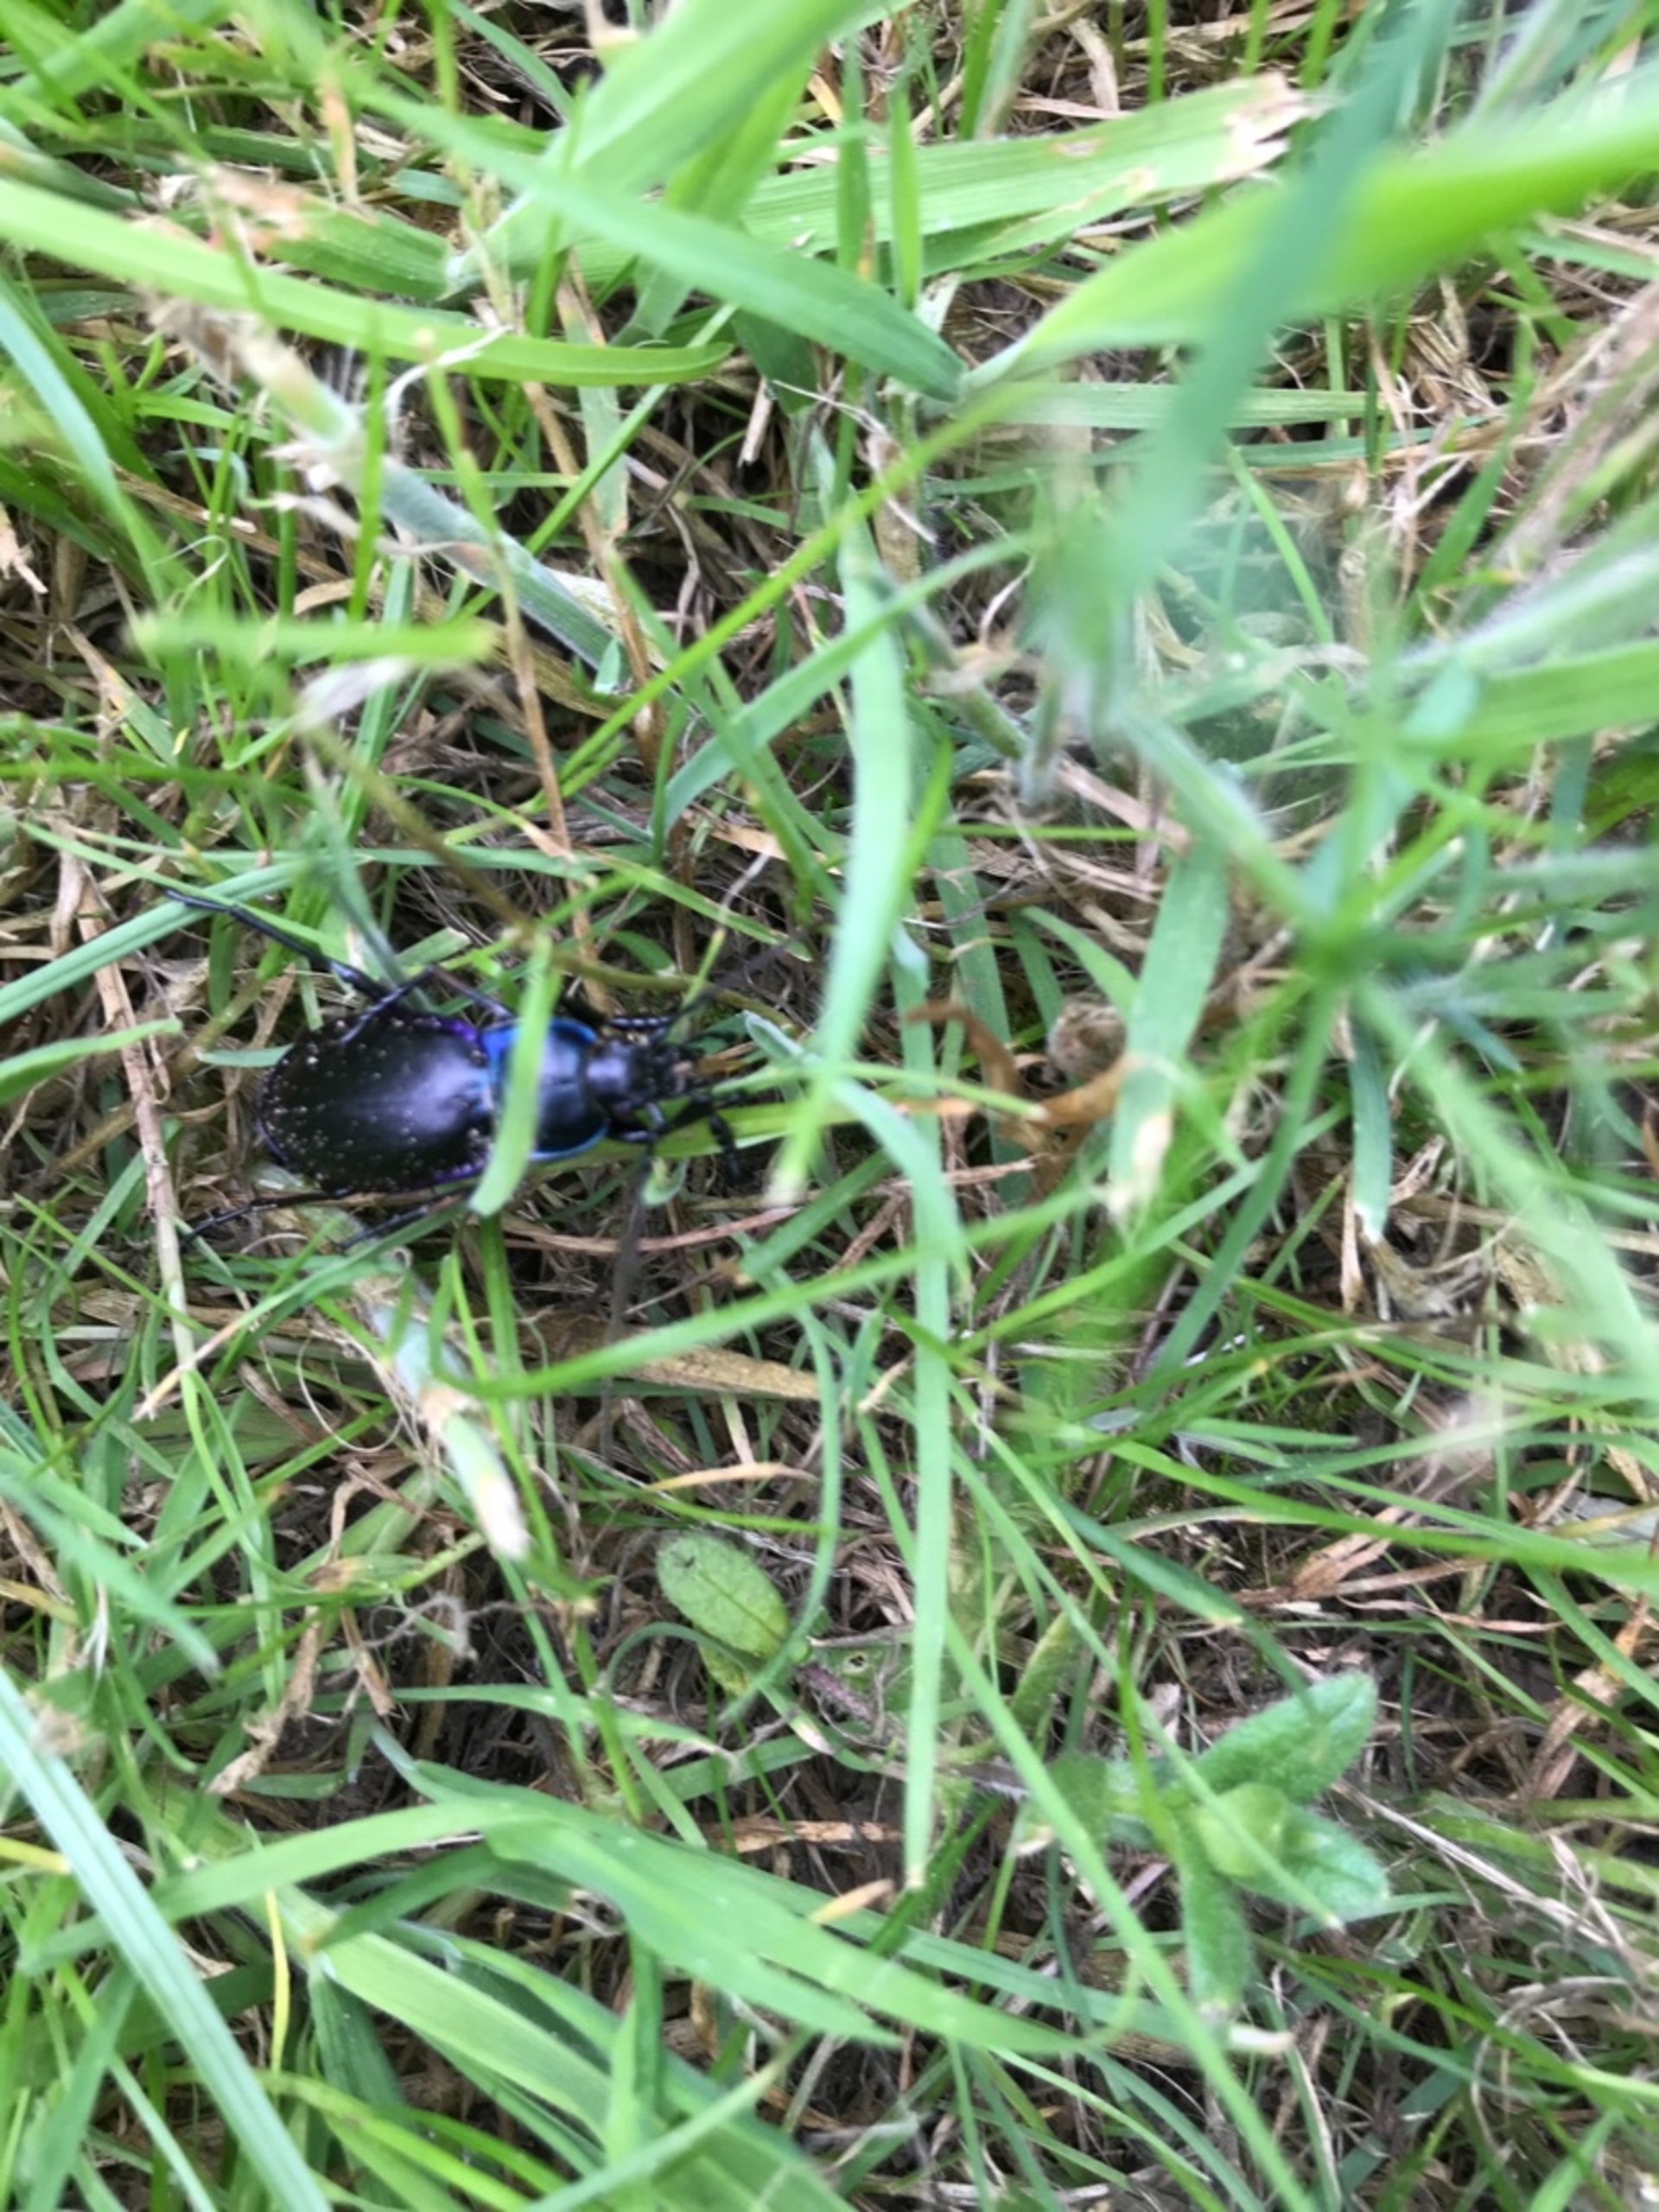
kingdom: Animalia
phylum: Arthropoda
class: Insecta
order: Coleoptera
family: Carabidae
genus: Carabus
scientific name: Carabus violaceus
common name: Violetrandet løber
